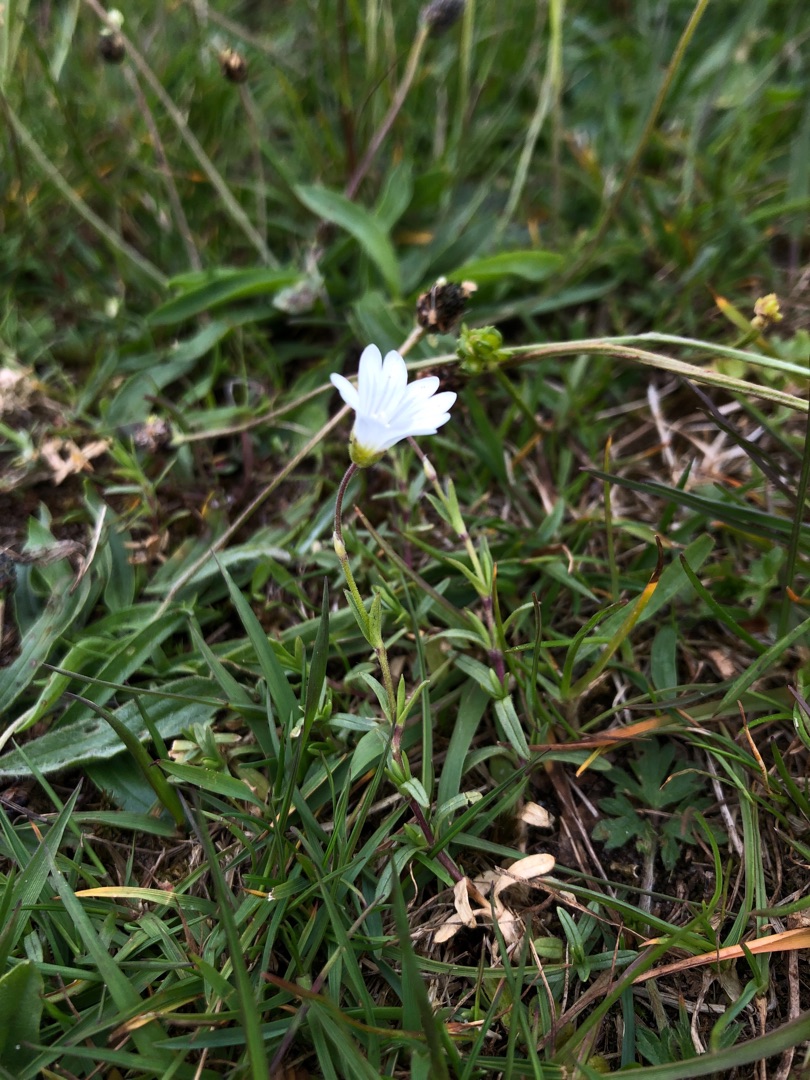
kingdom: Plantae
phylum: Tracheophyta
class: Magnoliopsida
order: Caryophyllales
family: Caryophyllaceae
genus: Cerastium
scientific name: Cerastium arvense
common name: Storblomstret hønsetarm
